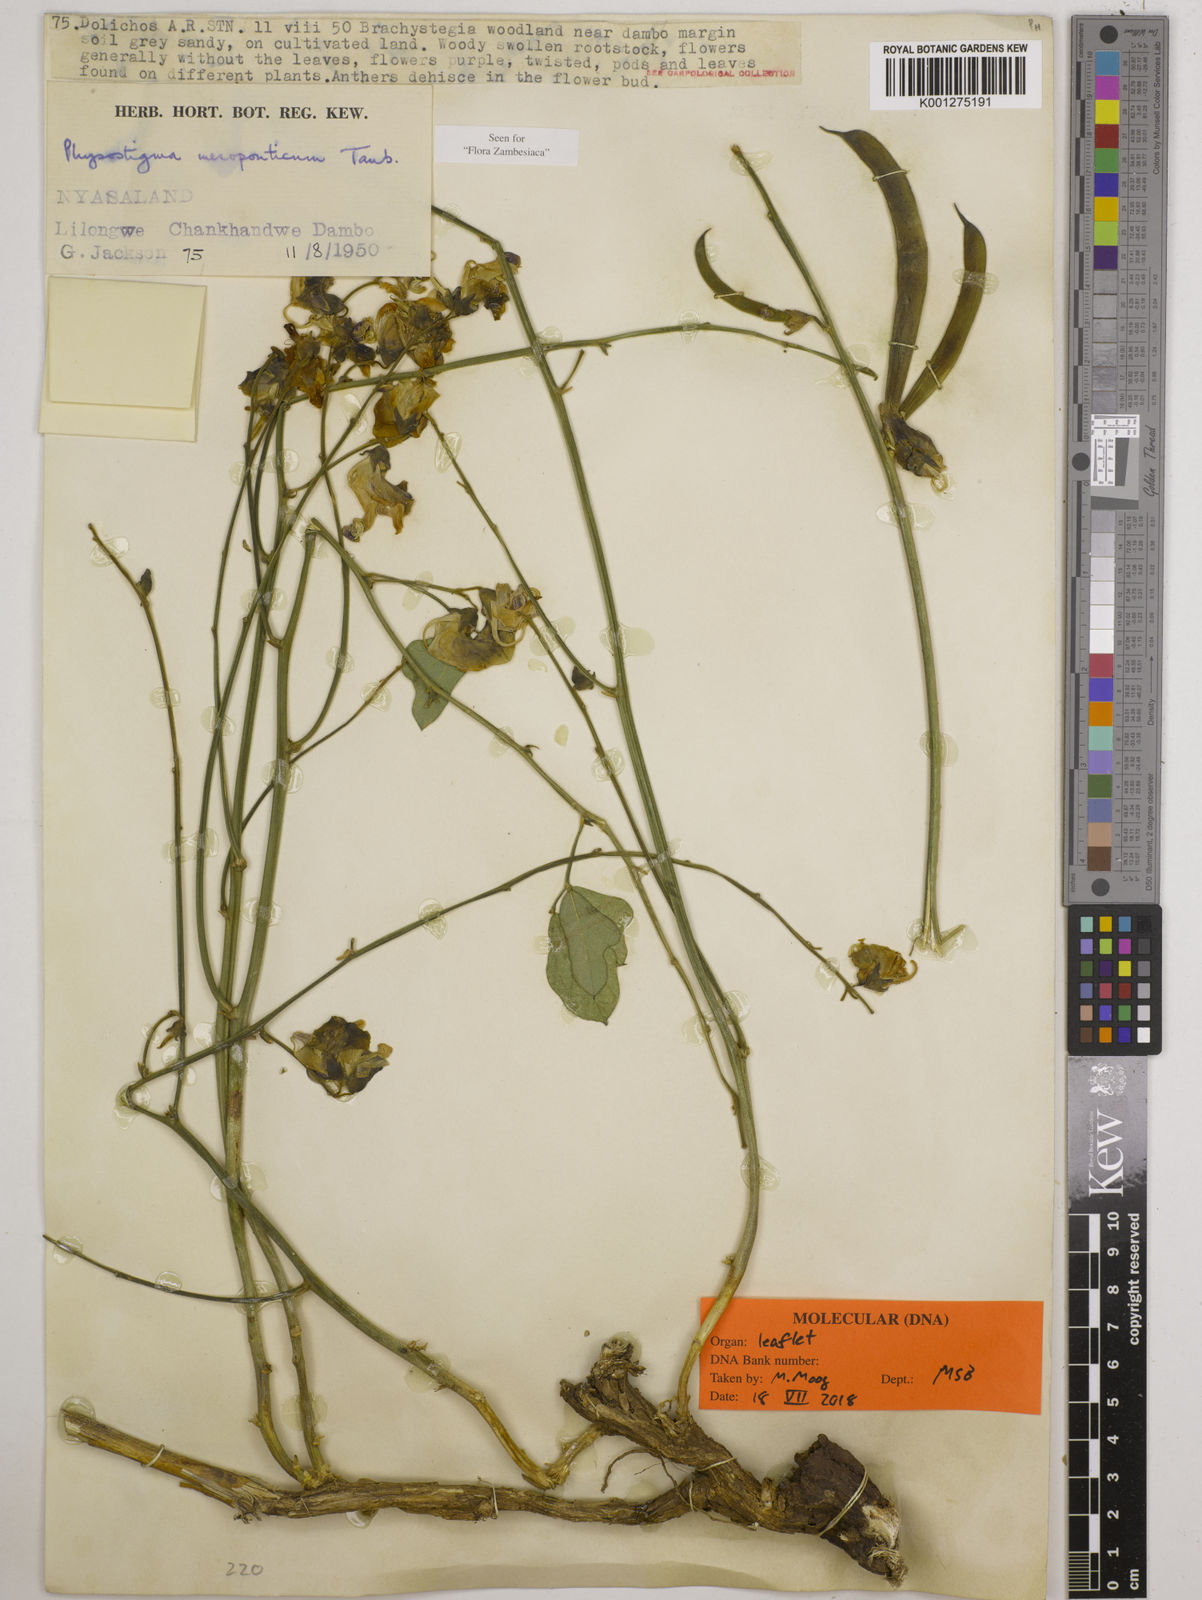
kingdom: Plantae
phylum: Tracheophyta
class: Magnoliopsida
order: Fabales
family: Fabaceae
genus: Physostigma
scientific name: Physostigma mesoponticum
